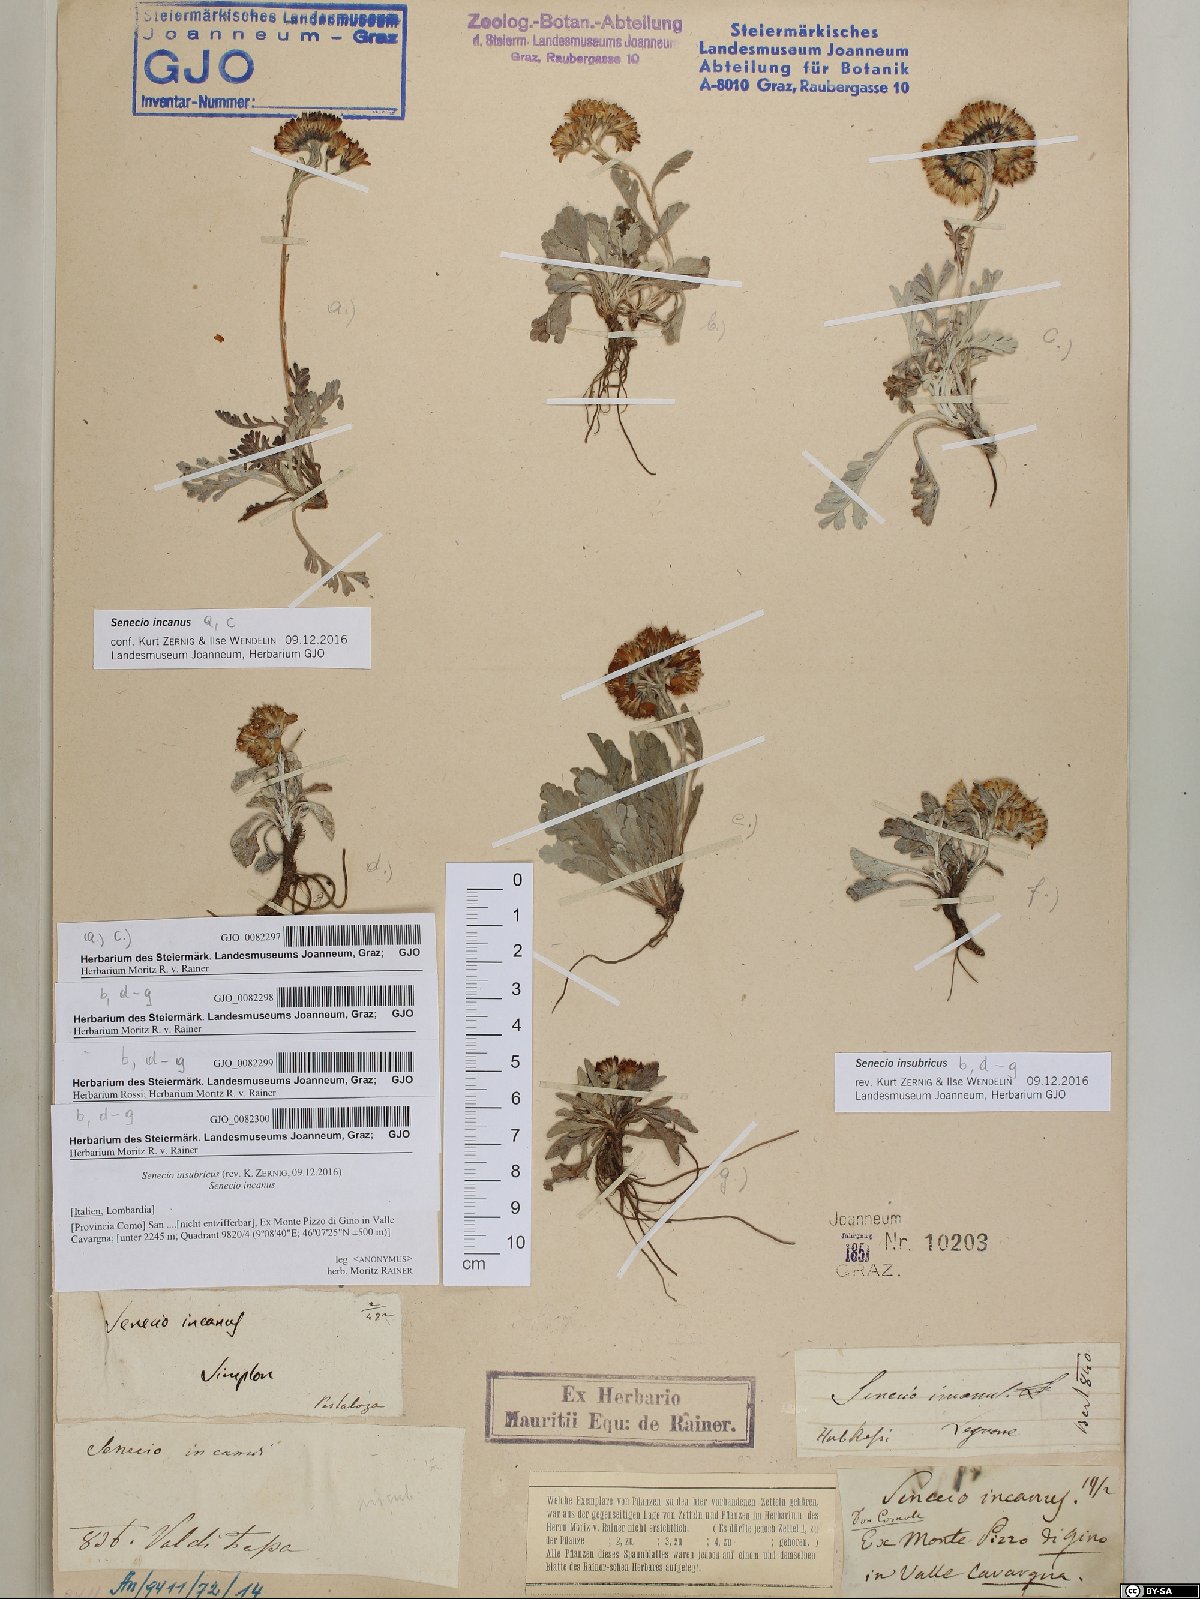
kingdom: Plantae
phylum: Tracheophyta
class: Magnoliopsida
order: Asterales
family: Asteraceae
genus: Jacobaea
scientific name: Jacobaea insubrica
